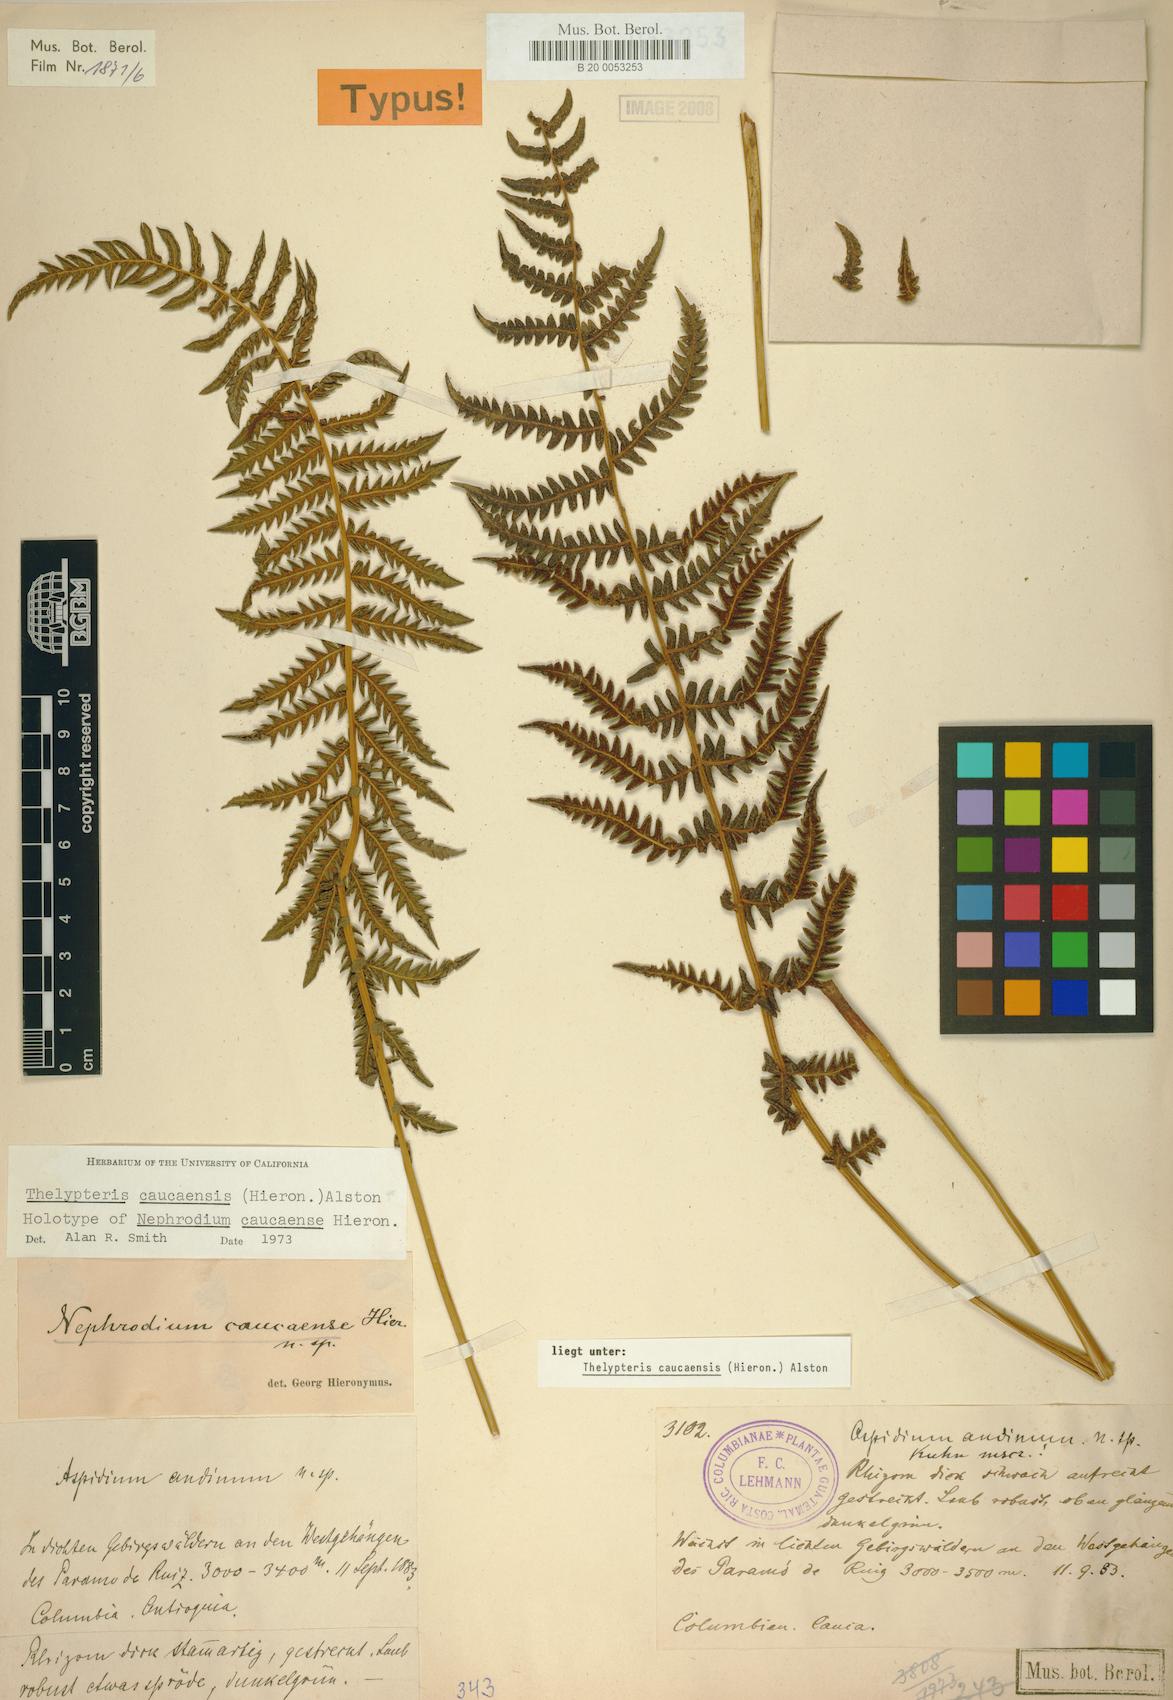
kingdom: Plantae
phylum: Tracheophyta
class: Polypodiopsida
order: Polypodiales
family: Thelypteridaceae
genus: Amauropelta
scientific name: Amauropelta caucaensis
